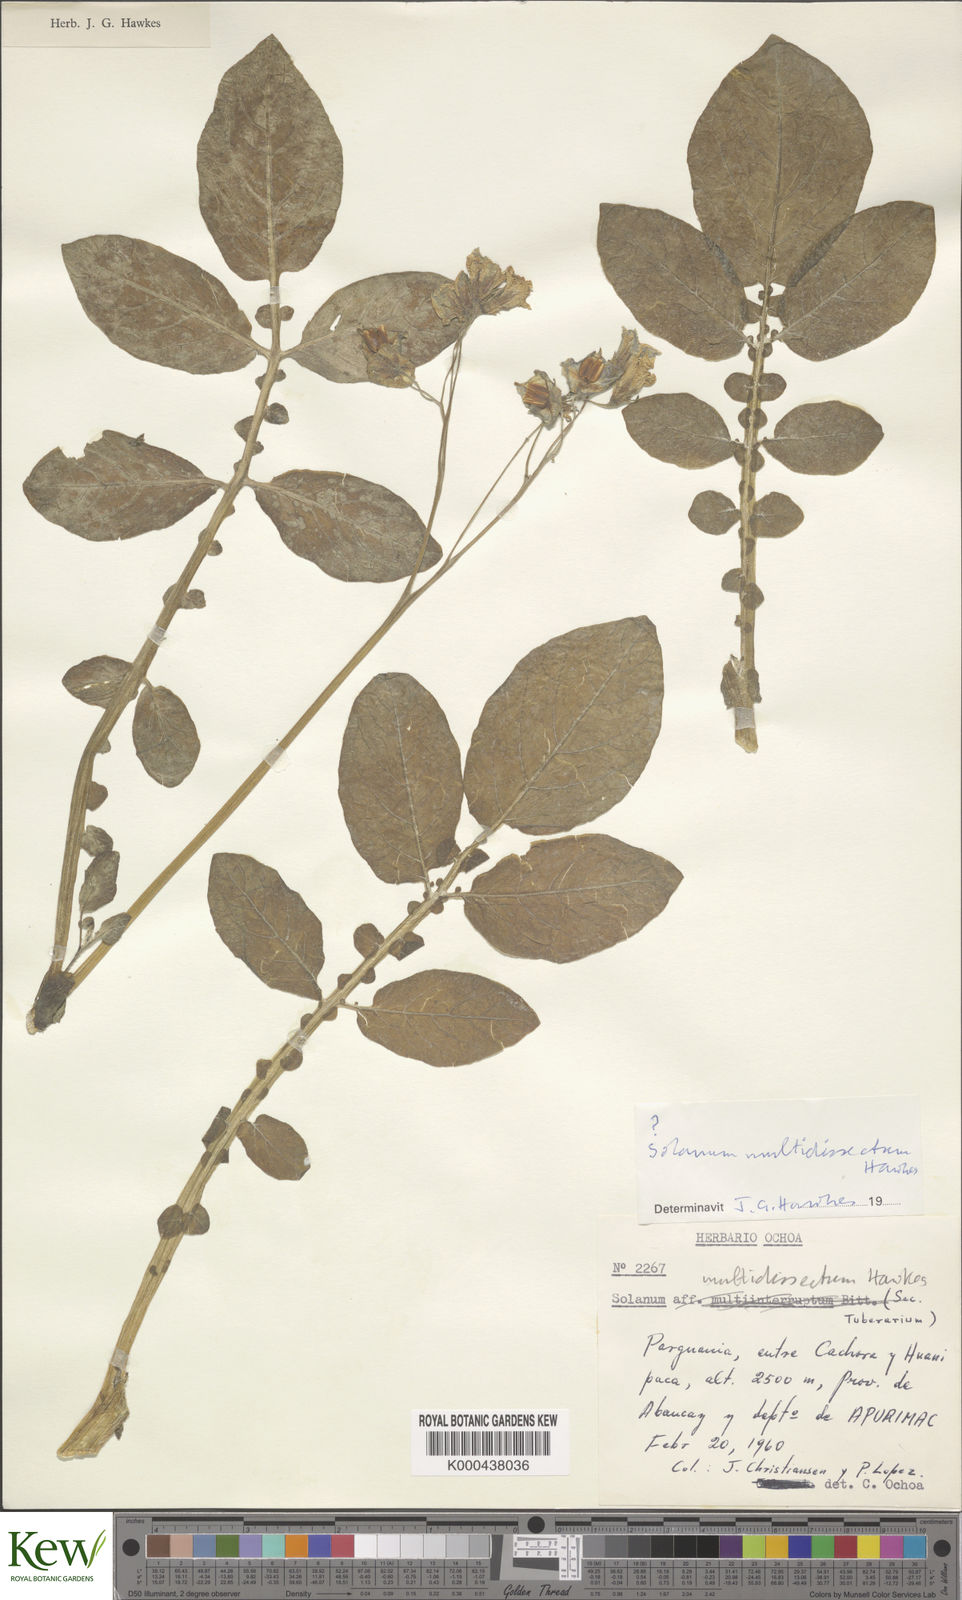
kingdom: Plantae
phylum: Tracheophyta
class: Magnoliopsida
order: Solanales
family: Solanaceae
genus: Solanum
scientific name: Solanum candolleanum
